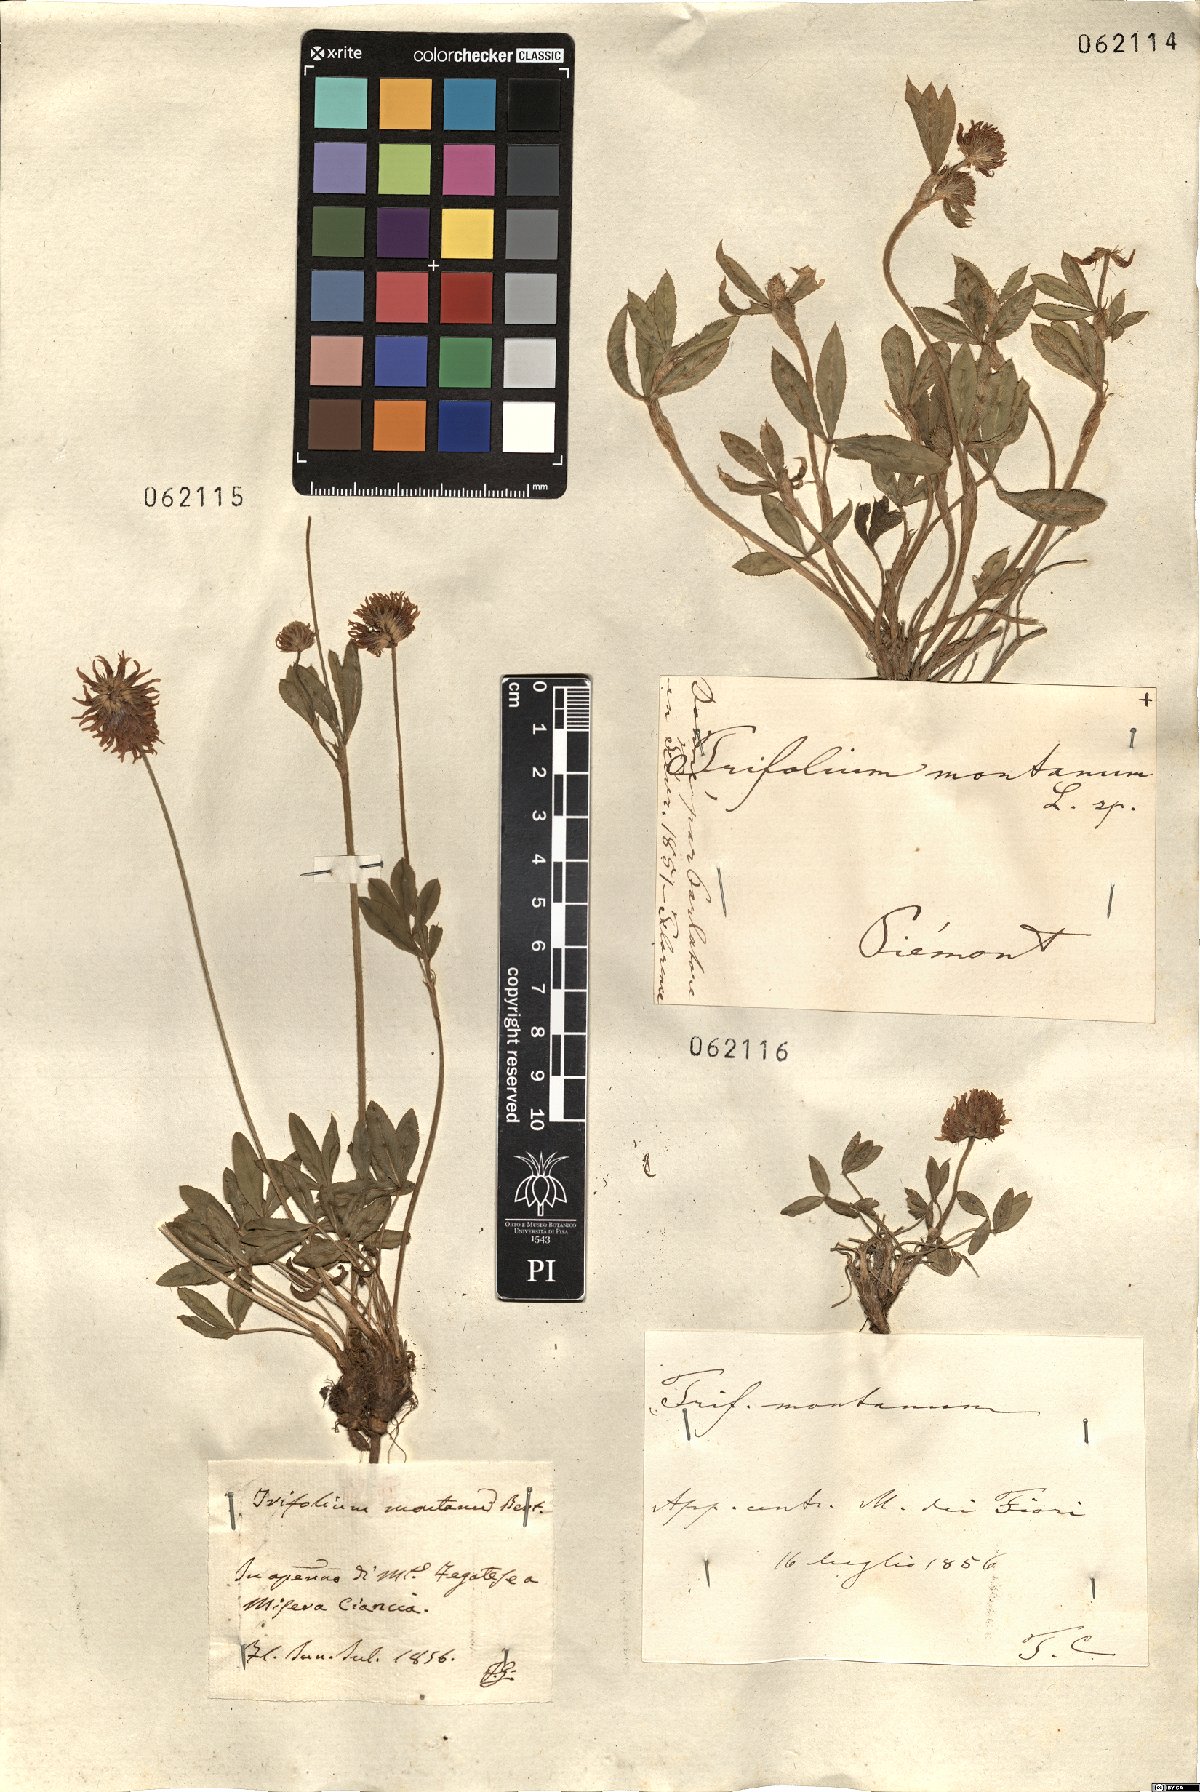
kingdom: Plantae
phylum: Tracheophyta
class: Magnoliopsida
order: Fabales
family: Fabaceae
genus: Trifolium
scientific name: Trifolium montanum
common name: Mountain clover
